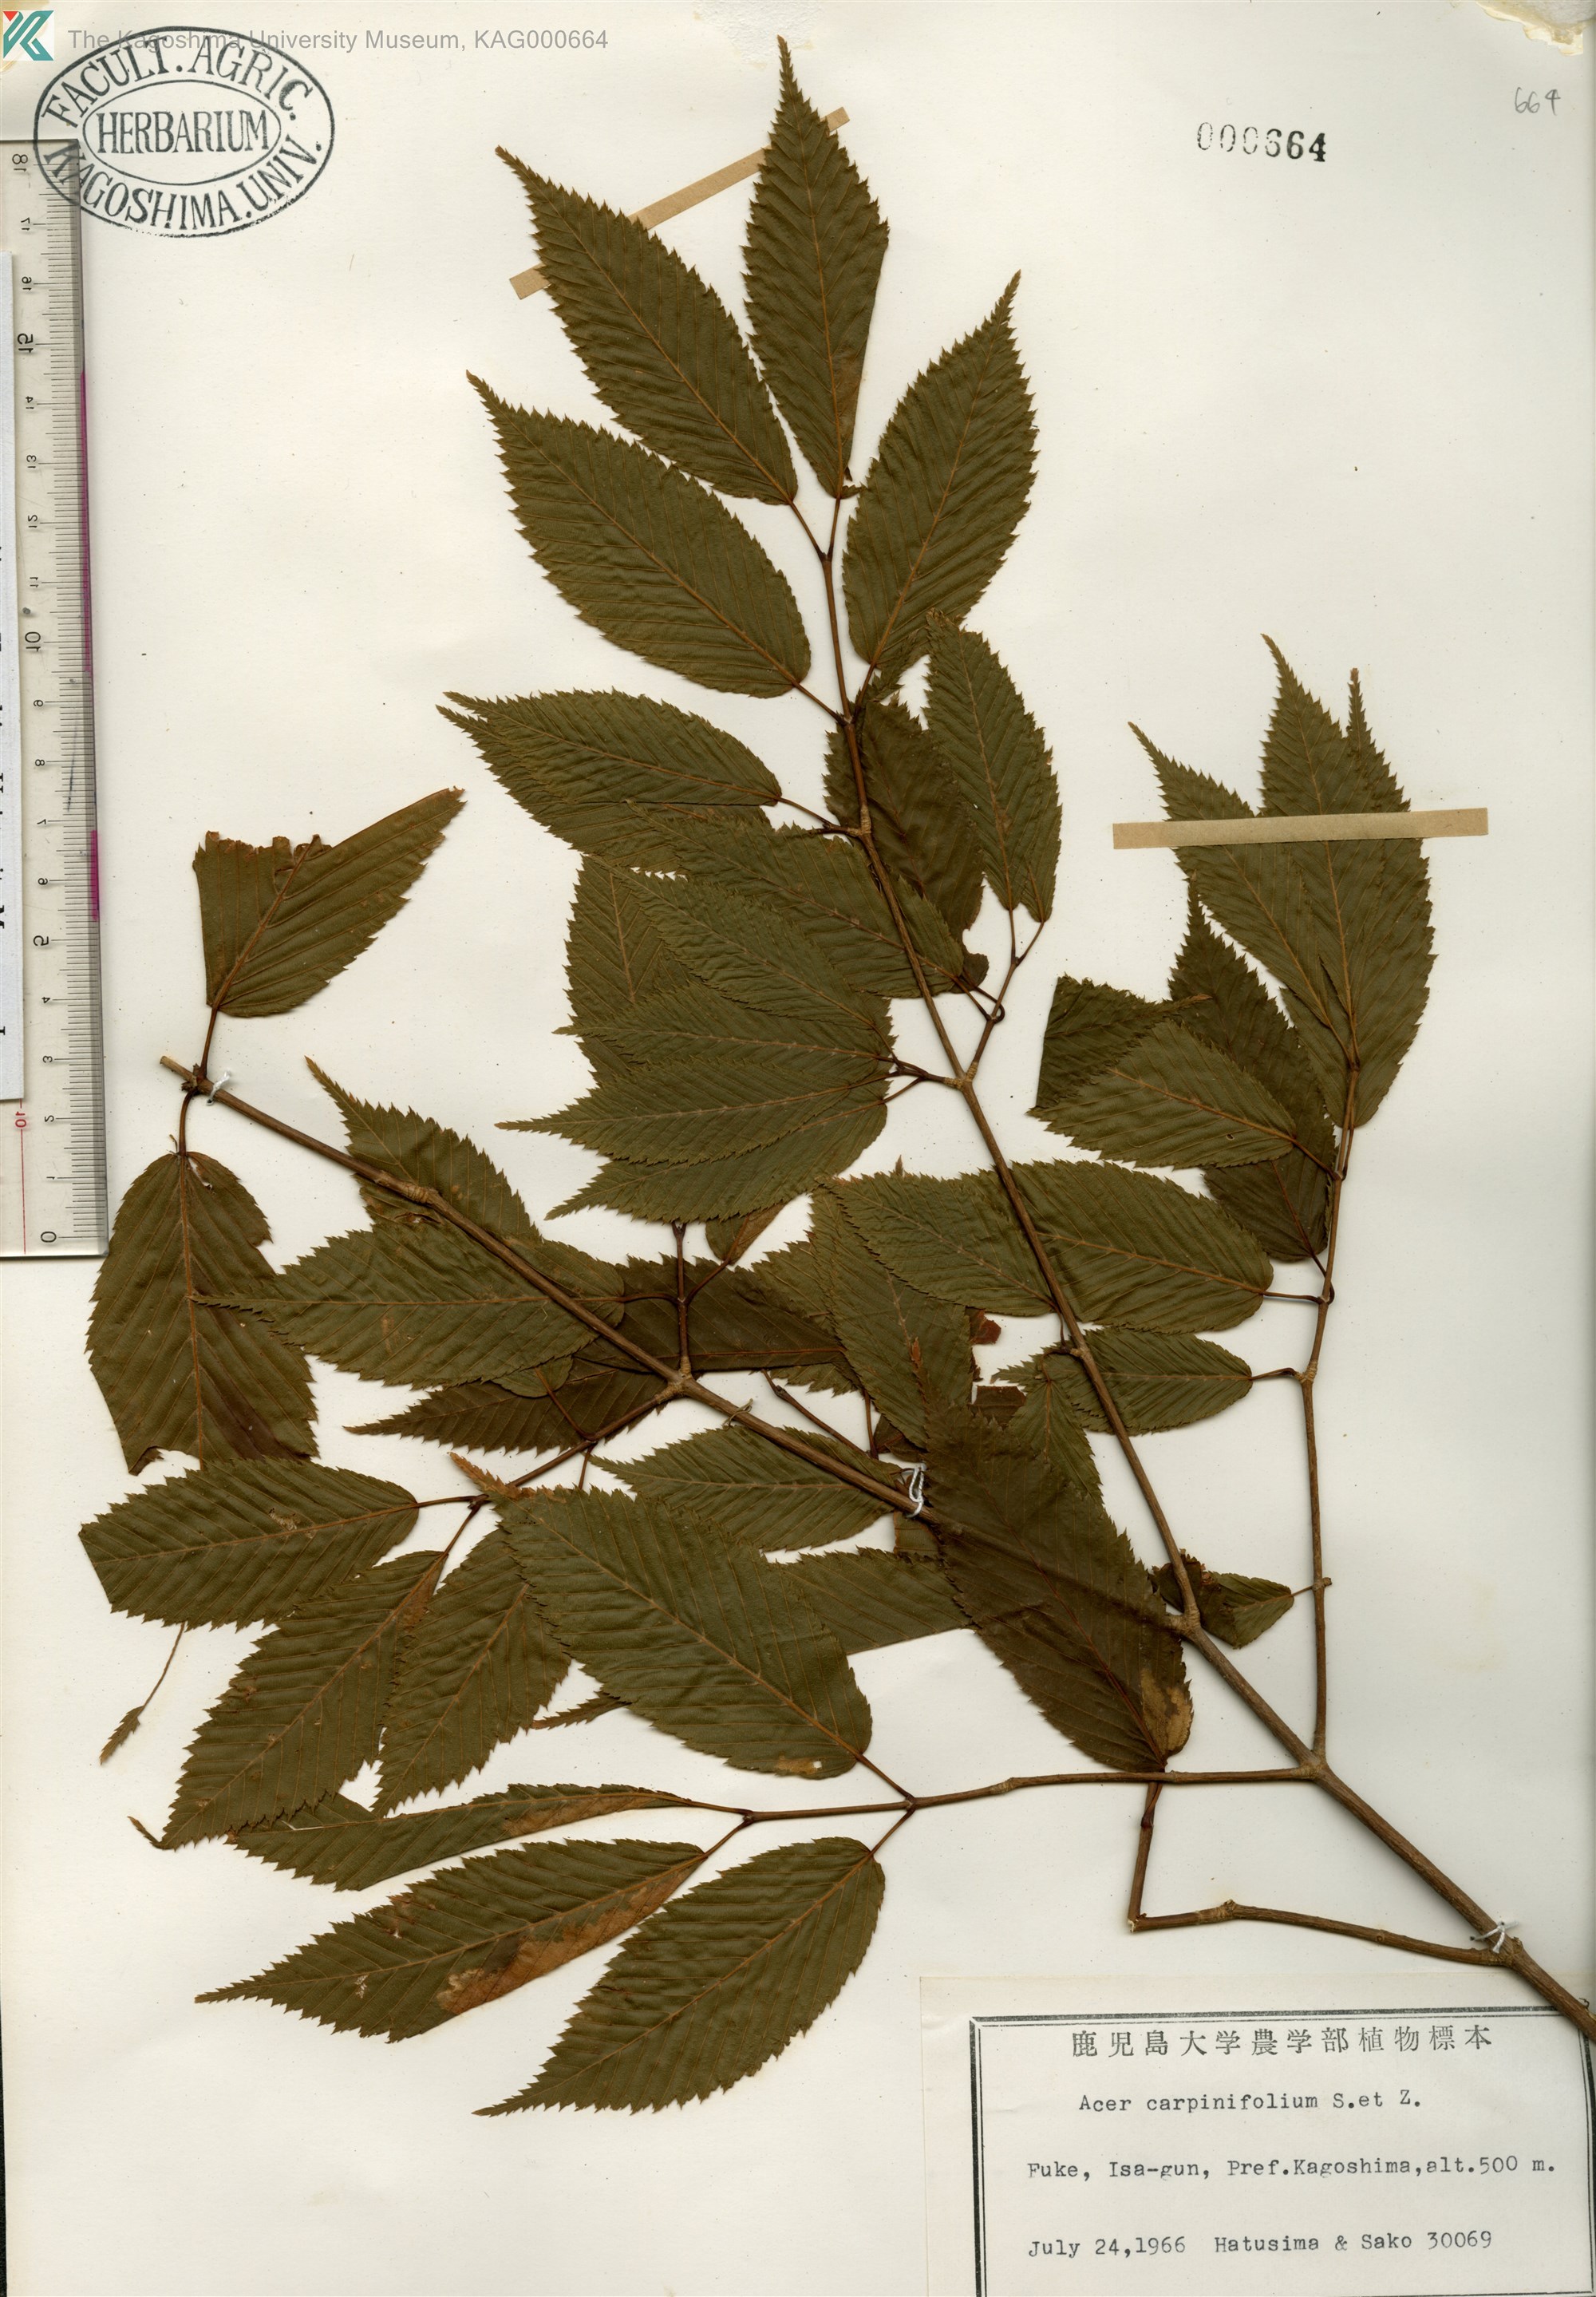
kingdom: Plantae
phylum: Tracheophyta
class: Magnoliopsida
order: Sapindales
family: Sapindaceae
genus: Acer
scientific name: Acer carpinifolium
